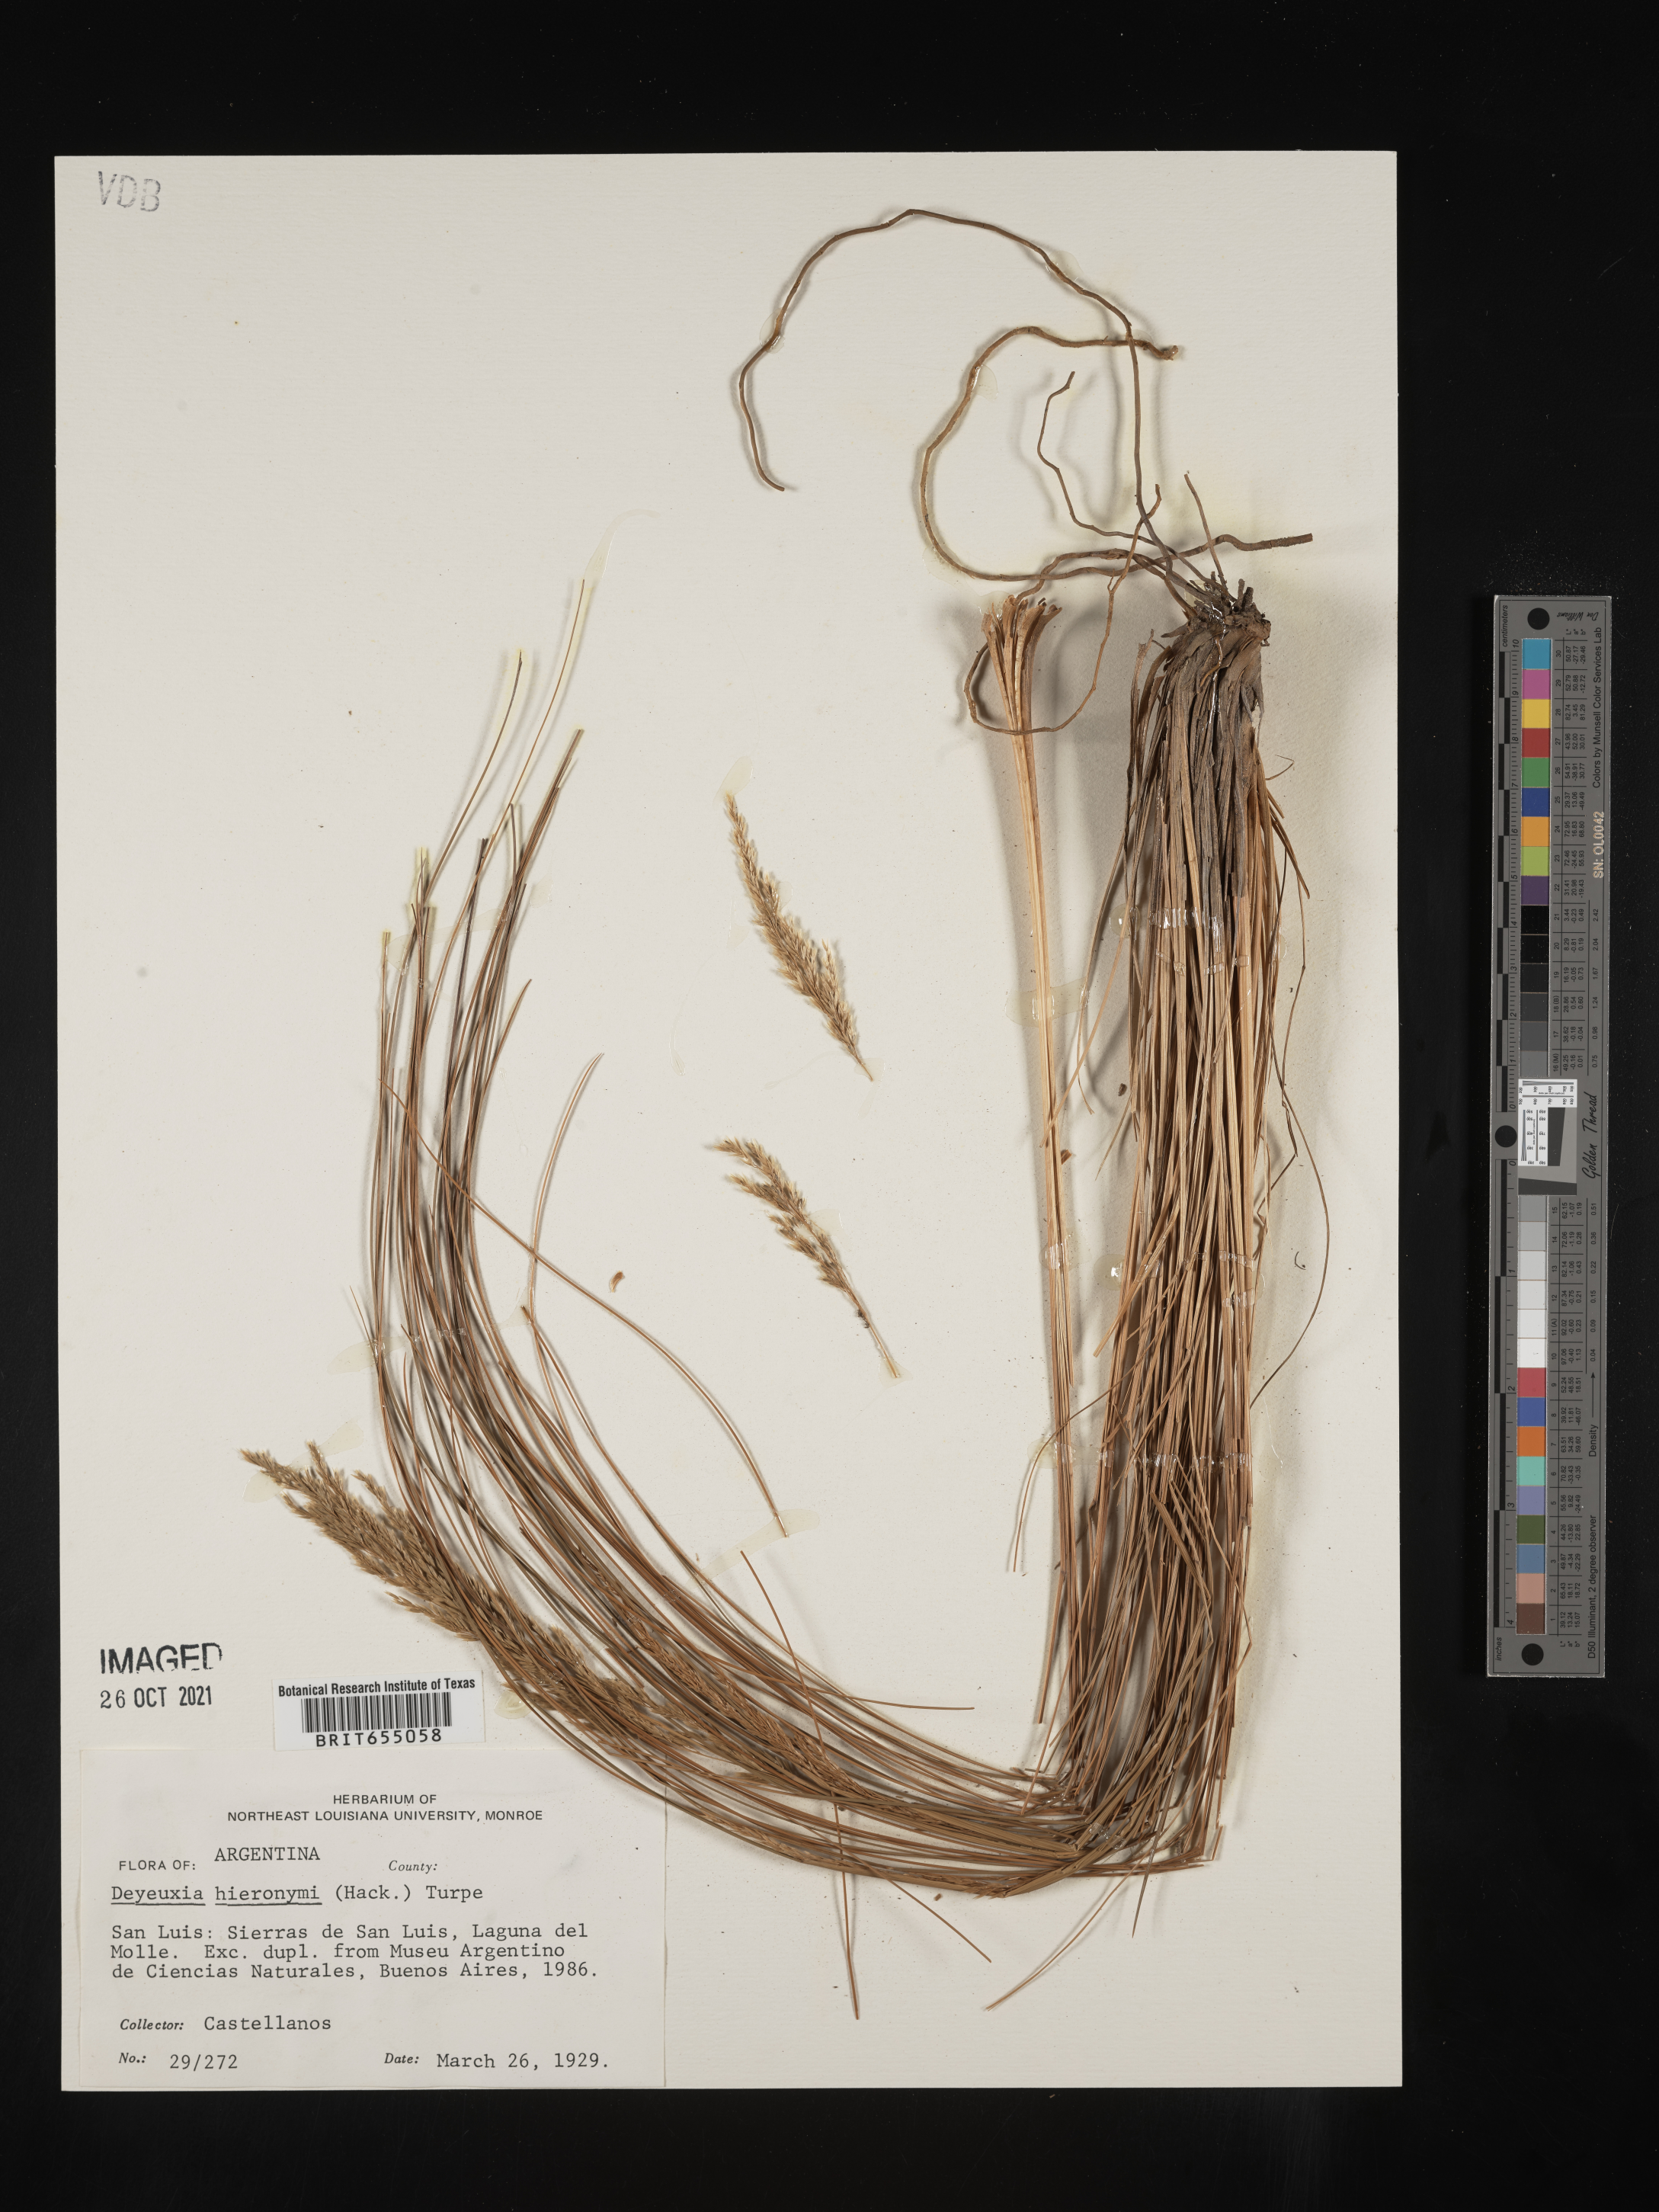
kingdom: Plantae
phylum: Tracheophyta
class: Liliopsida
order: Poales
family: Poaceae
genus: Deyeuxia
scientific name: Deyeuxia
